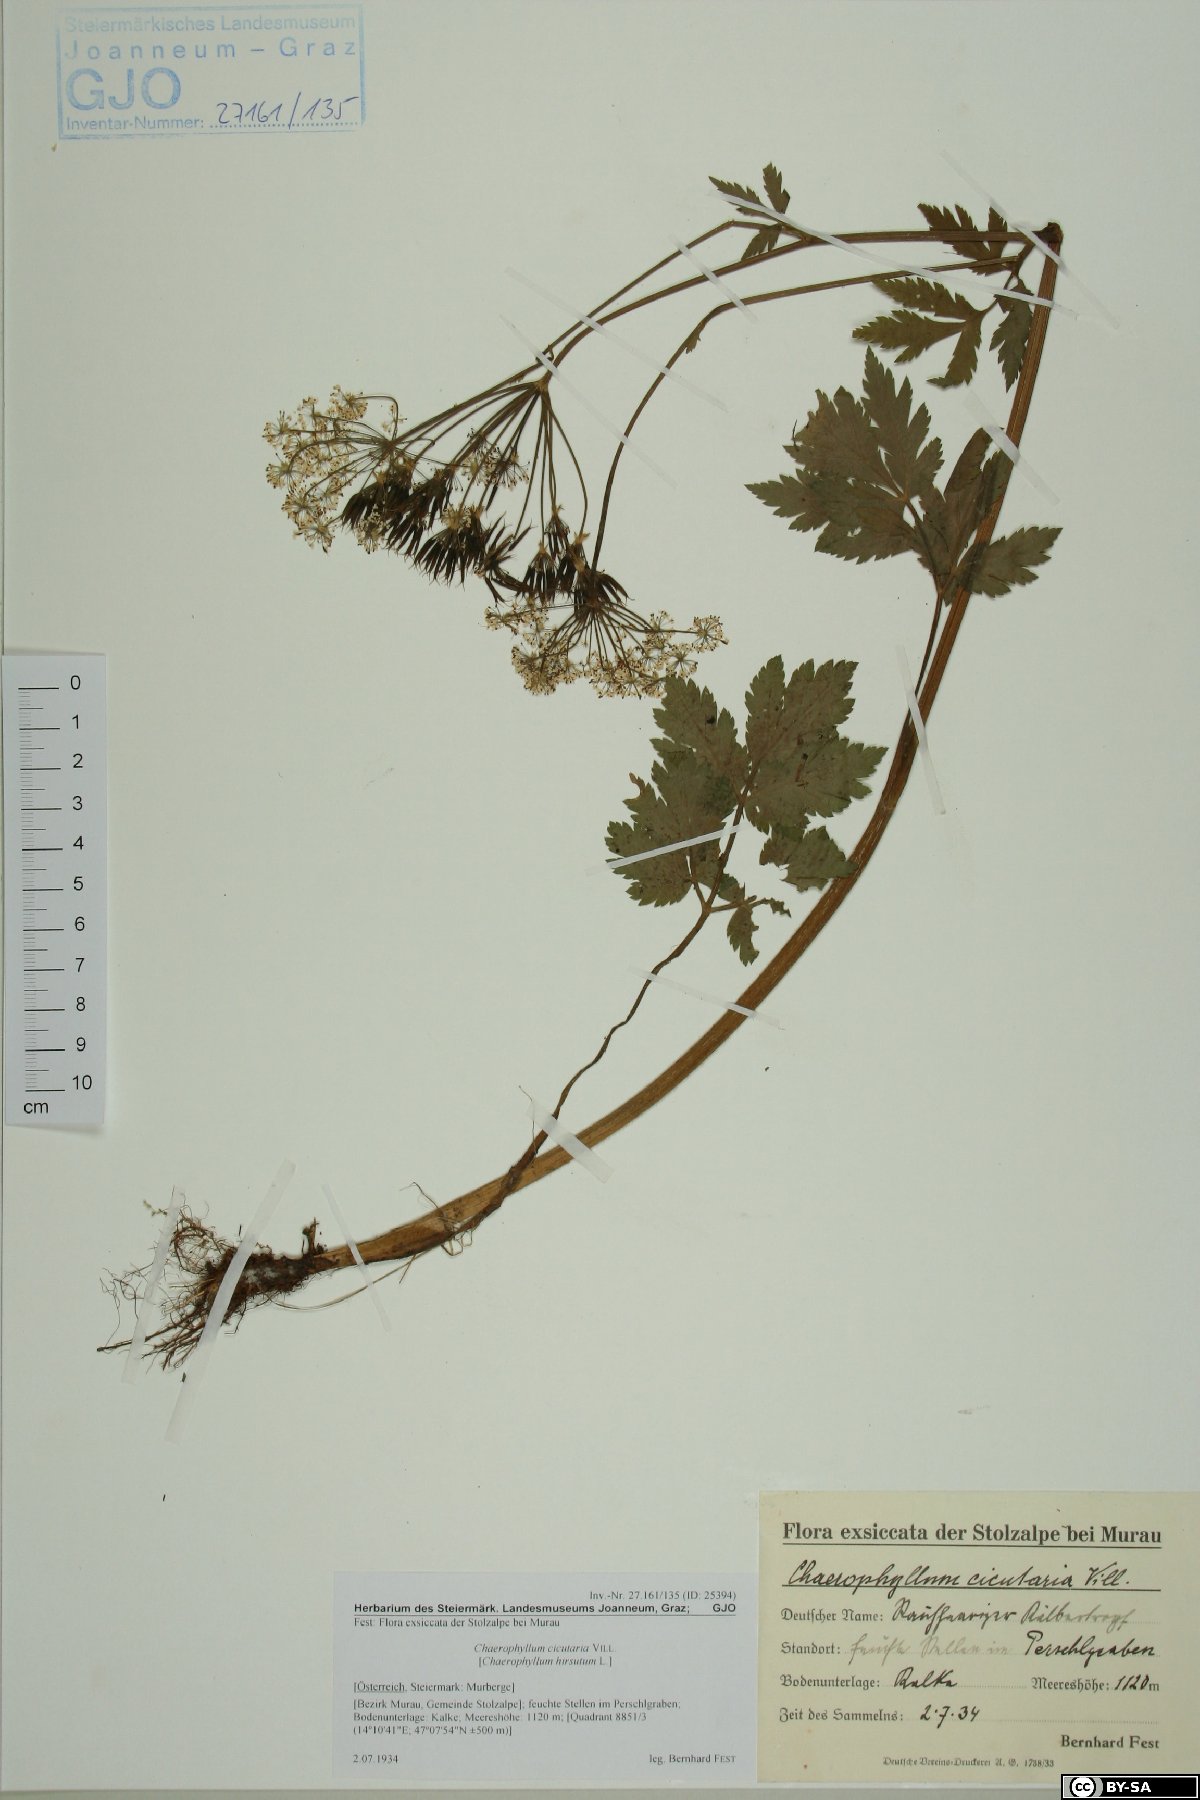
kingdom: Plantae
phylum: Tracheophyta
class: Magnoliopsida
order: Apiales
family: Apiaceae
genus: Chaerophyllum
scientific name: Chaerophyllum hirsutum
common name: Hairy chervil
